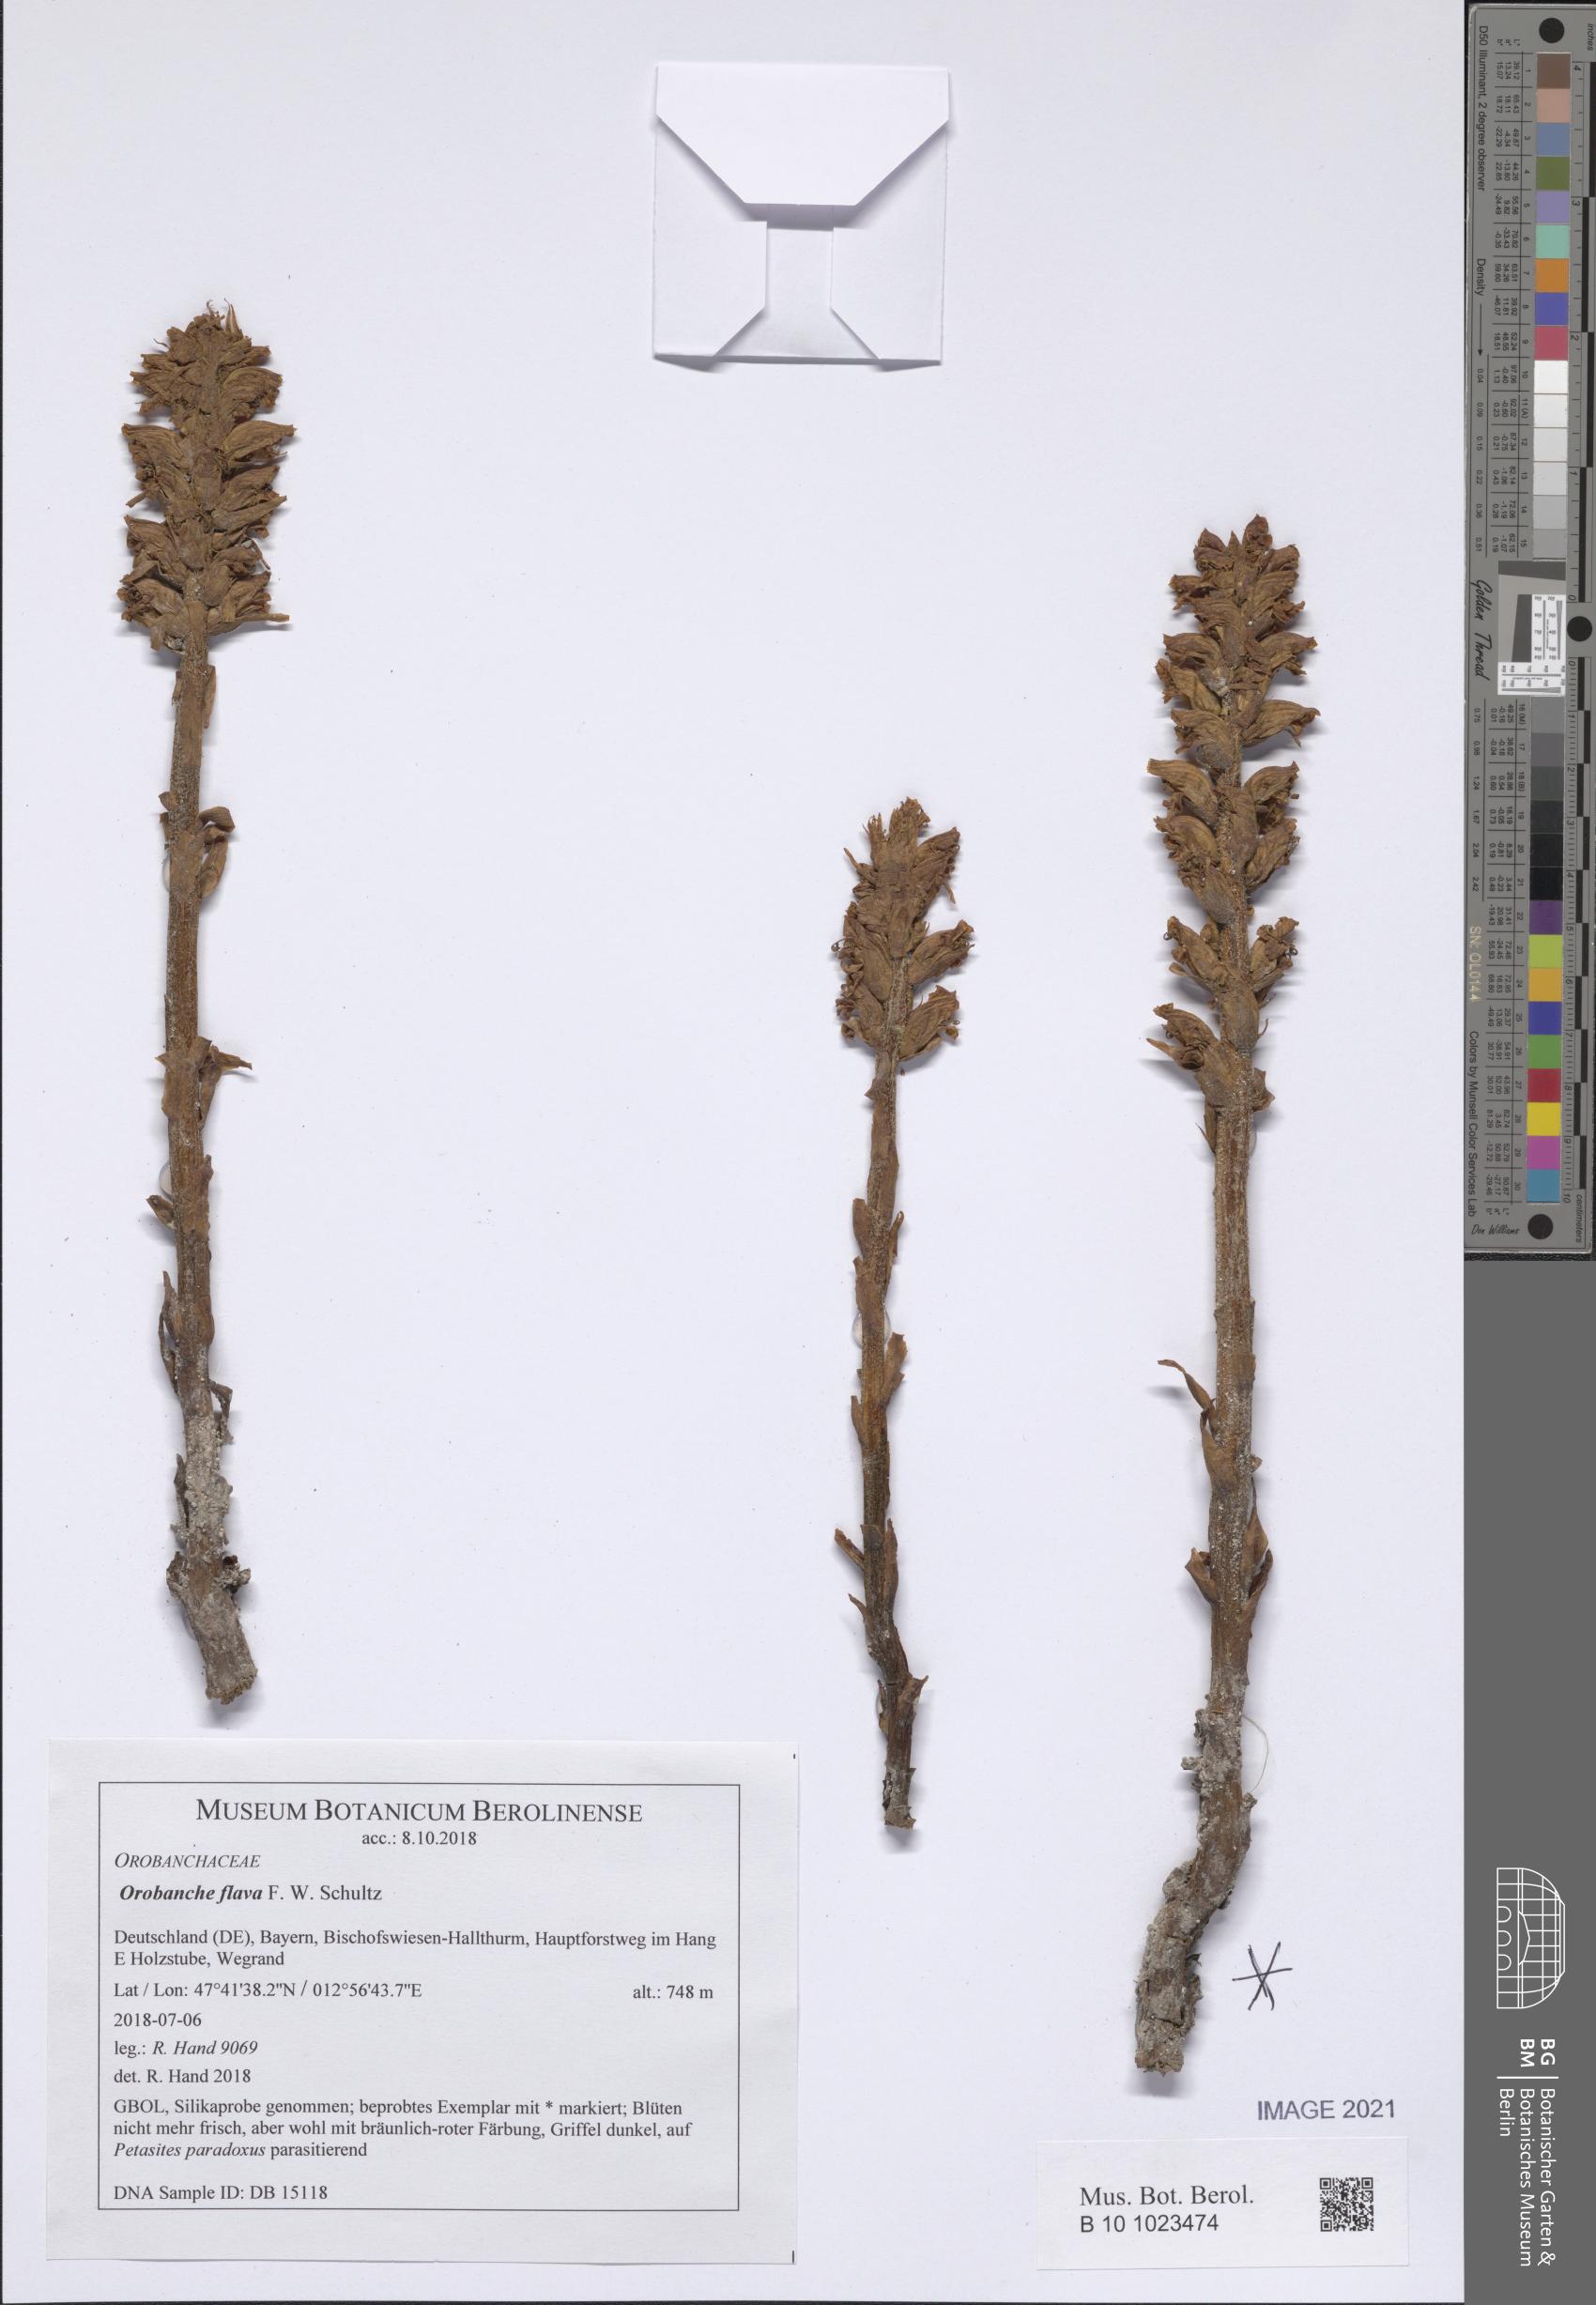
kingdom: Plantae
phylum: Tracheophyta
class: Magnoliopsida
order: Lamiales
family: Orobanchaceae
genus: Orobanche
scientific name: Orobanche flava
